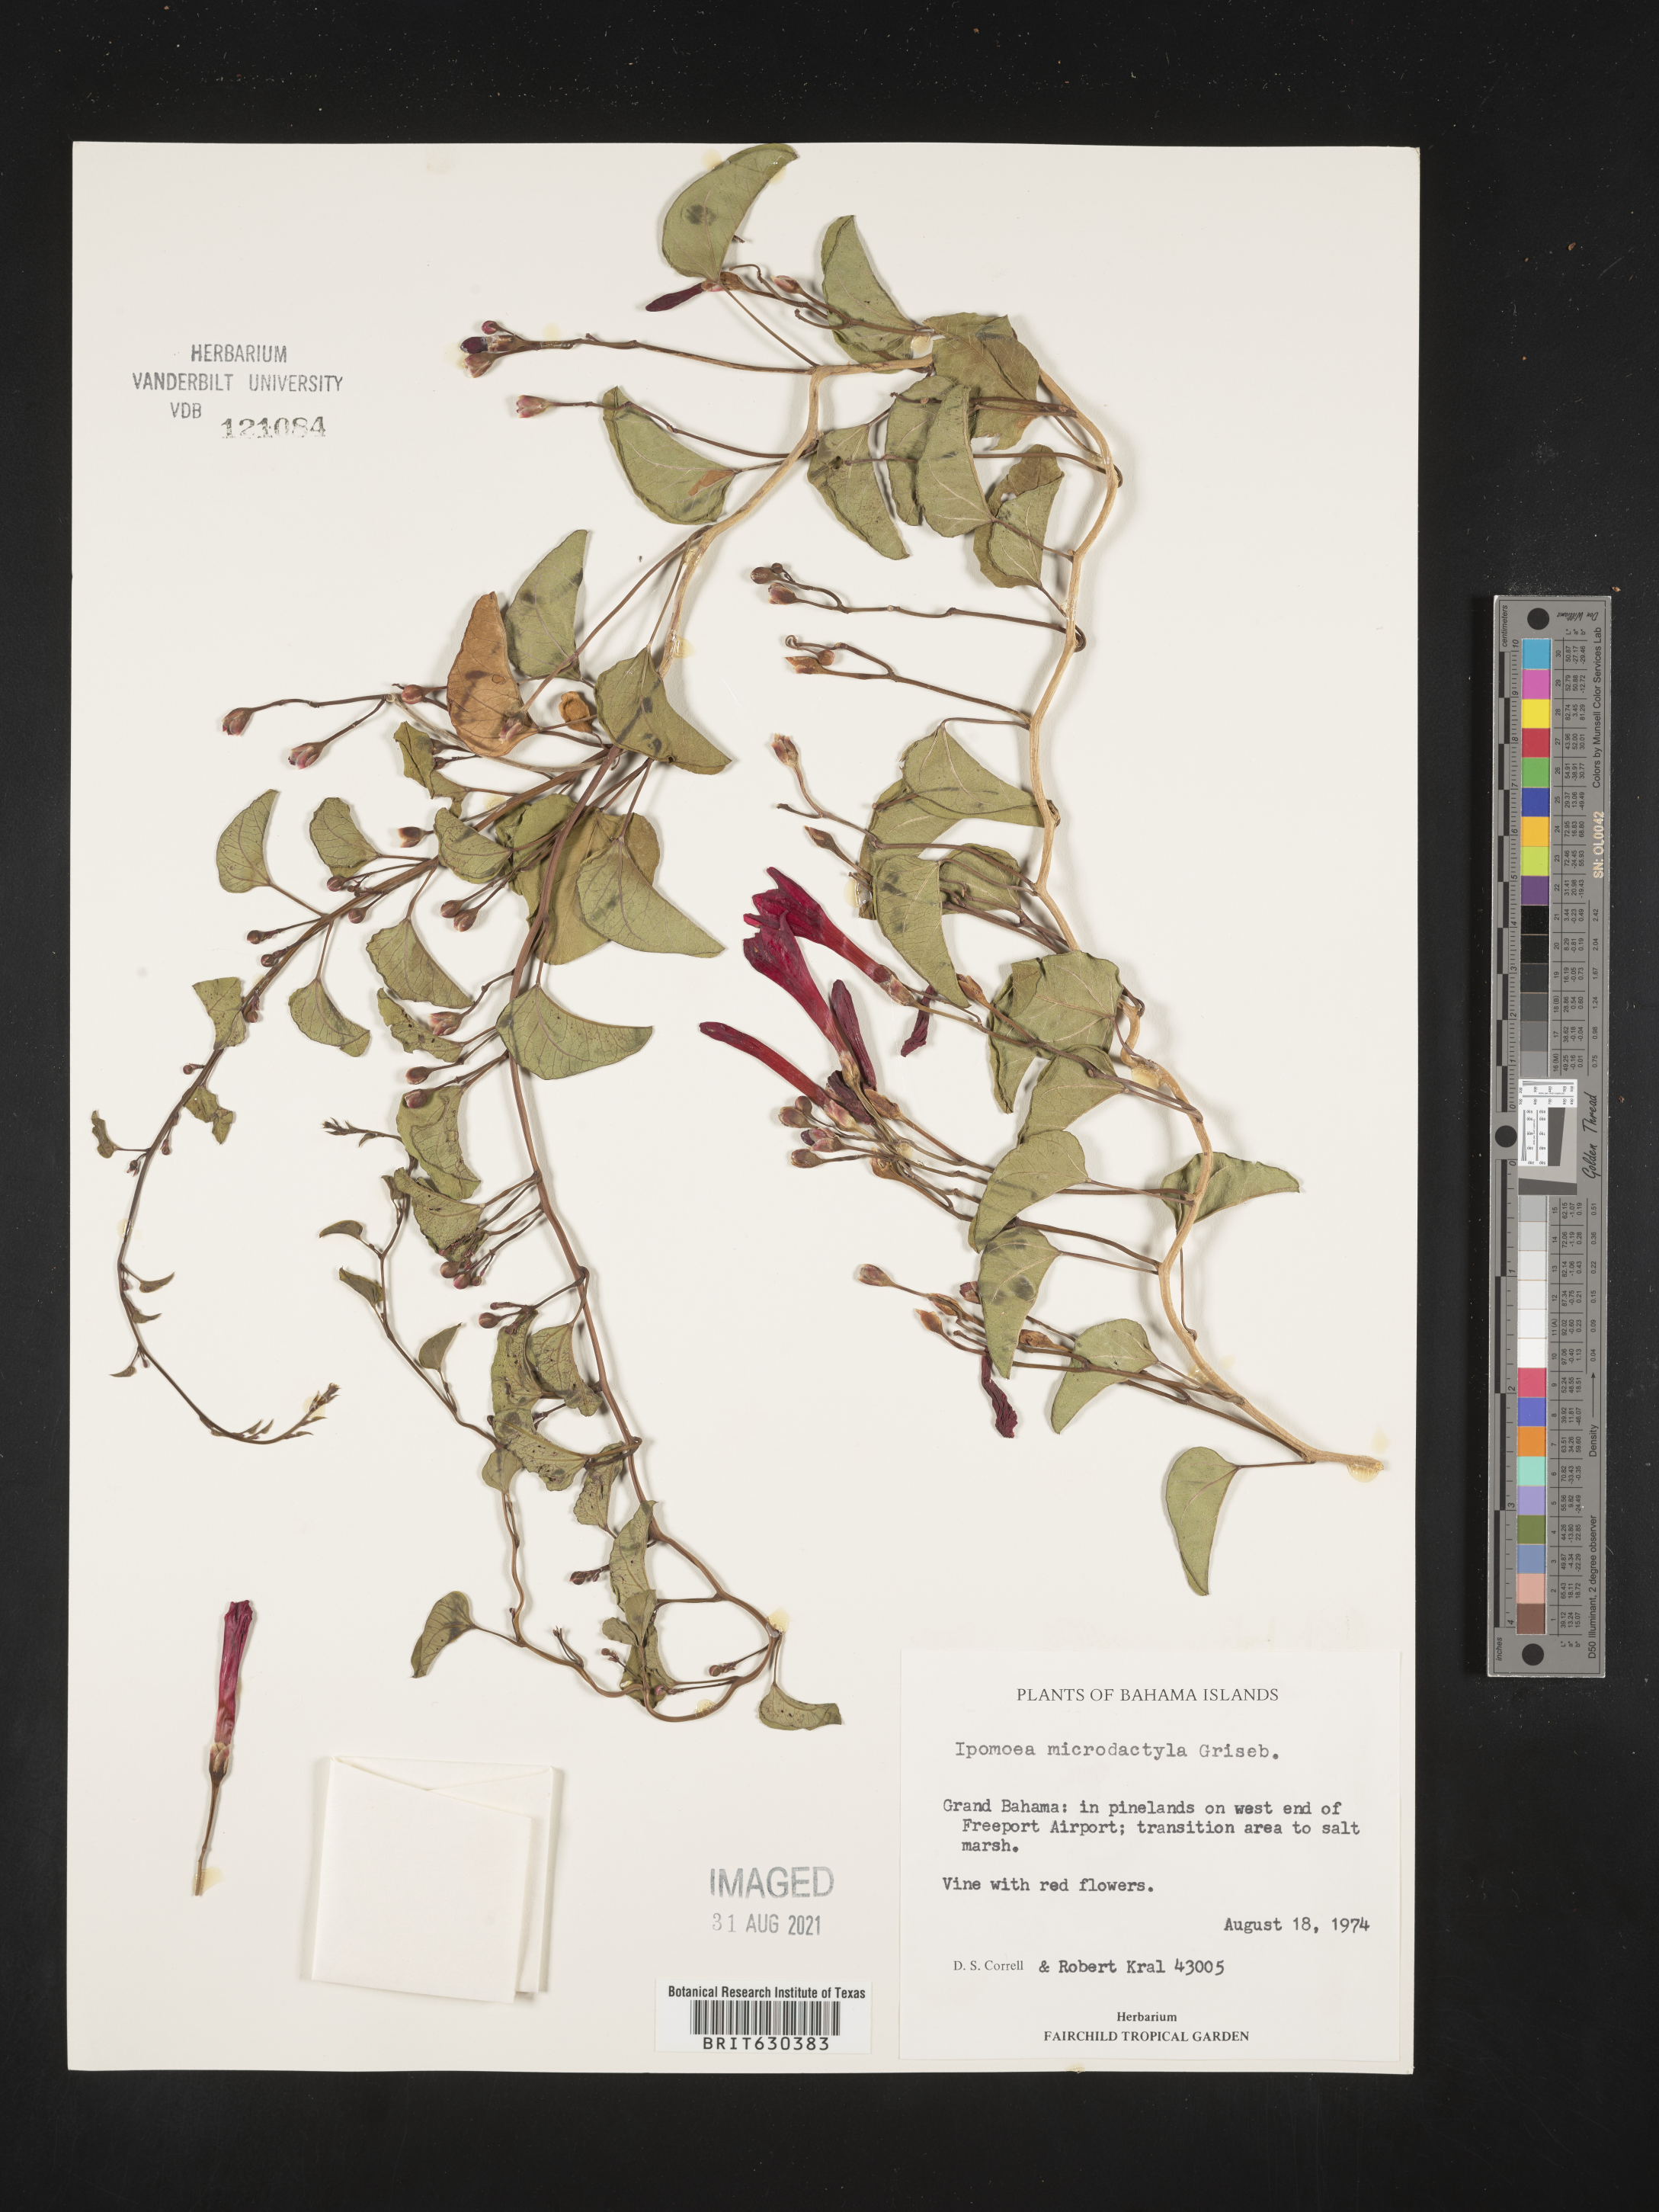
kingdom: Plantae
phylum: Tracheophyta
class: Magnoliopsida
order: Solanales
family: Convolvulaceae
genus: Ipomoea
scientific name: Ipomoea microdactyla
